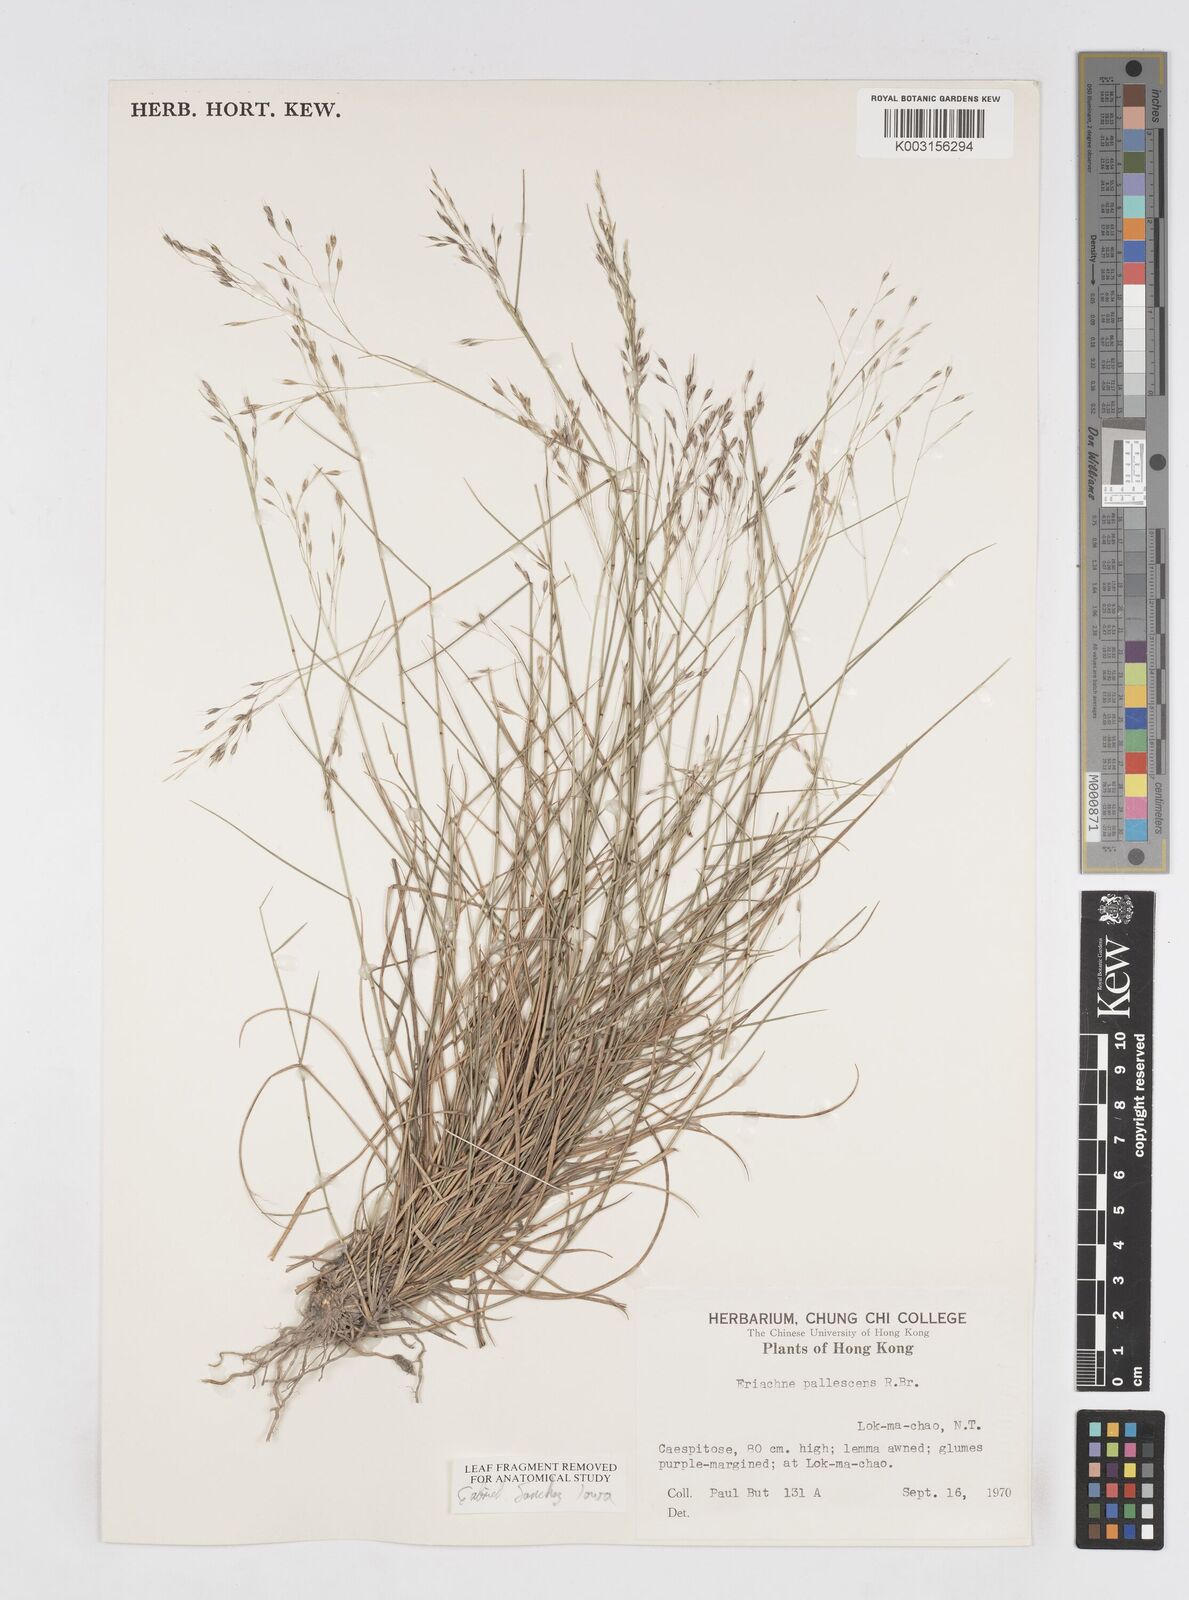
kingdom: Plantae
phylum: Tracheophyta
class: Liliopsida
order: Poales
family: Poaceae
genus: Eriachne
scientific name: Eriachne pallescens
